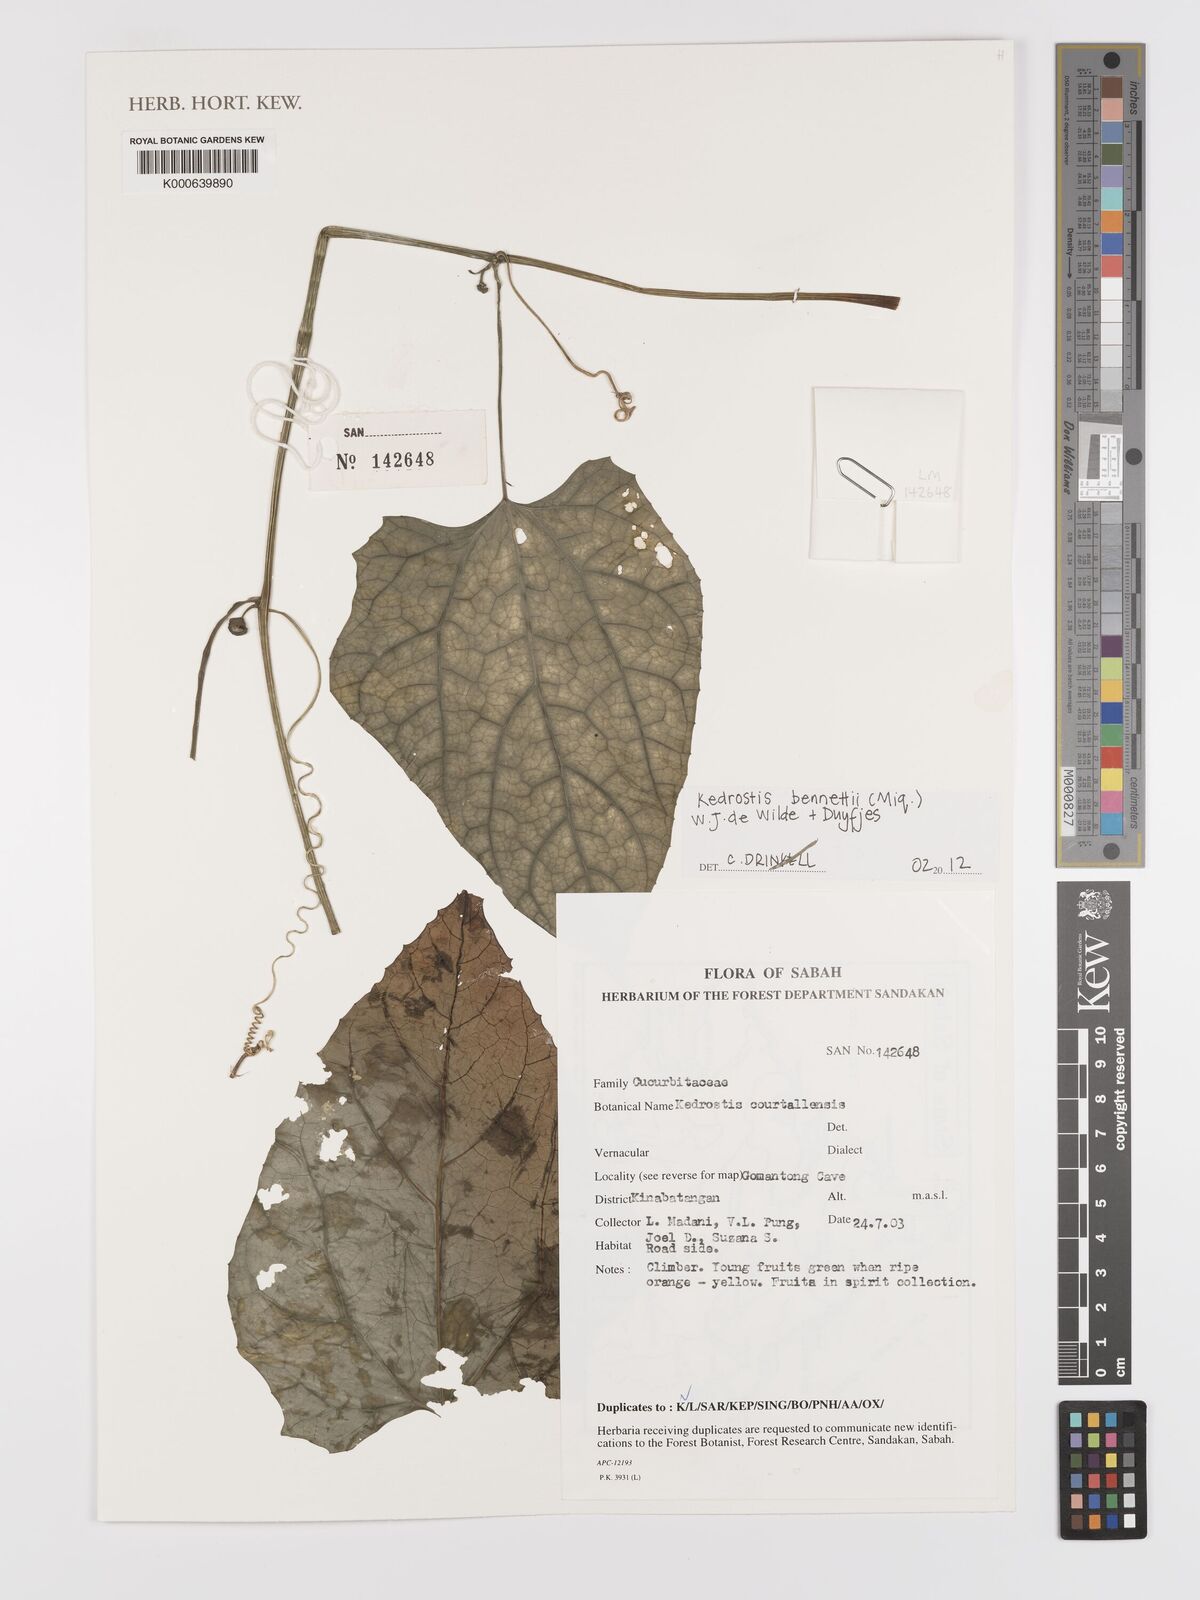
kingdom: Plantae
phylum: Tracheophyta
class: Magnoliopsida
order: Cucurbitales
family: Cucurbitaceae
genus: Kedrostis
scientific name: Kedrostis courtallensis
